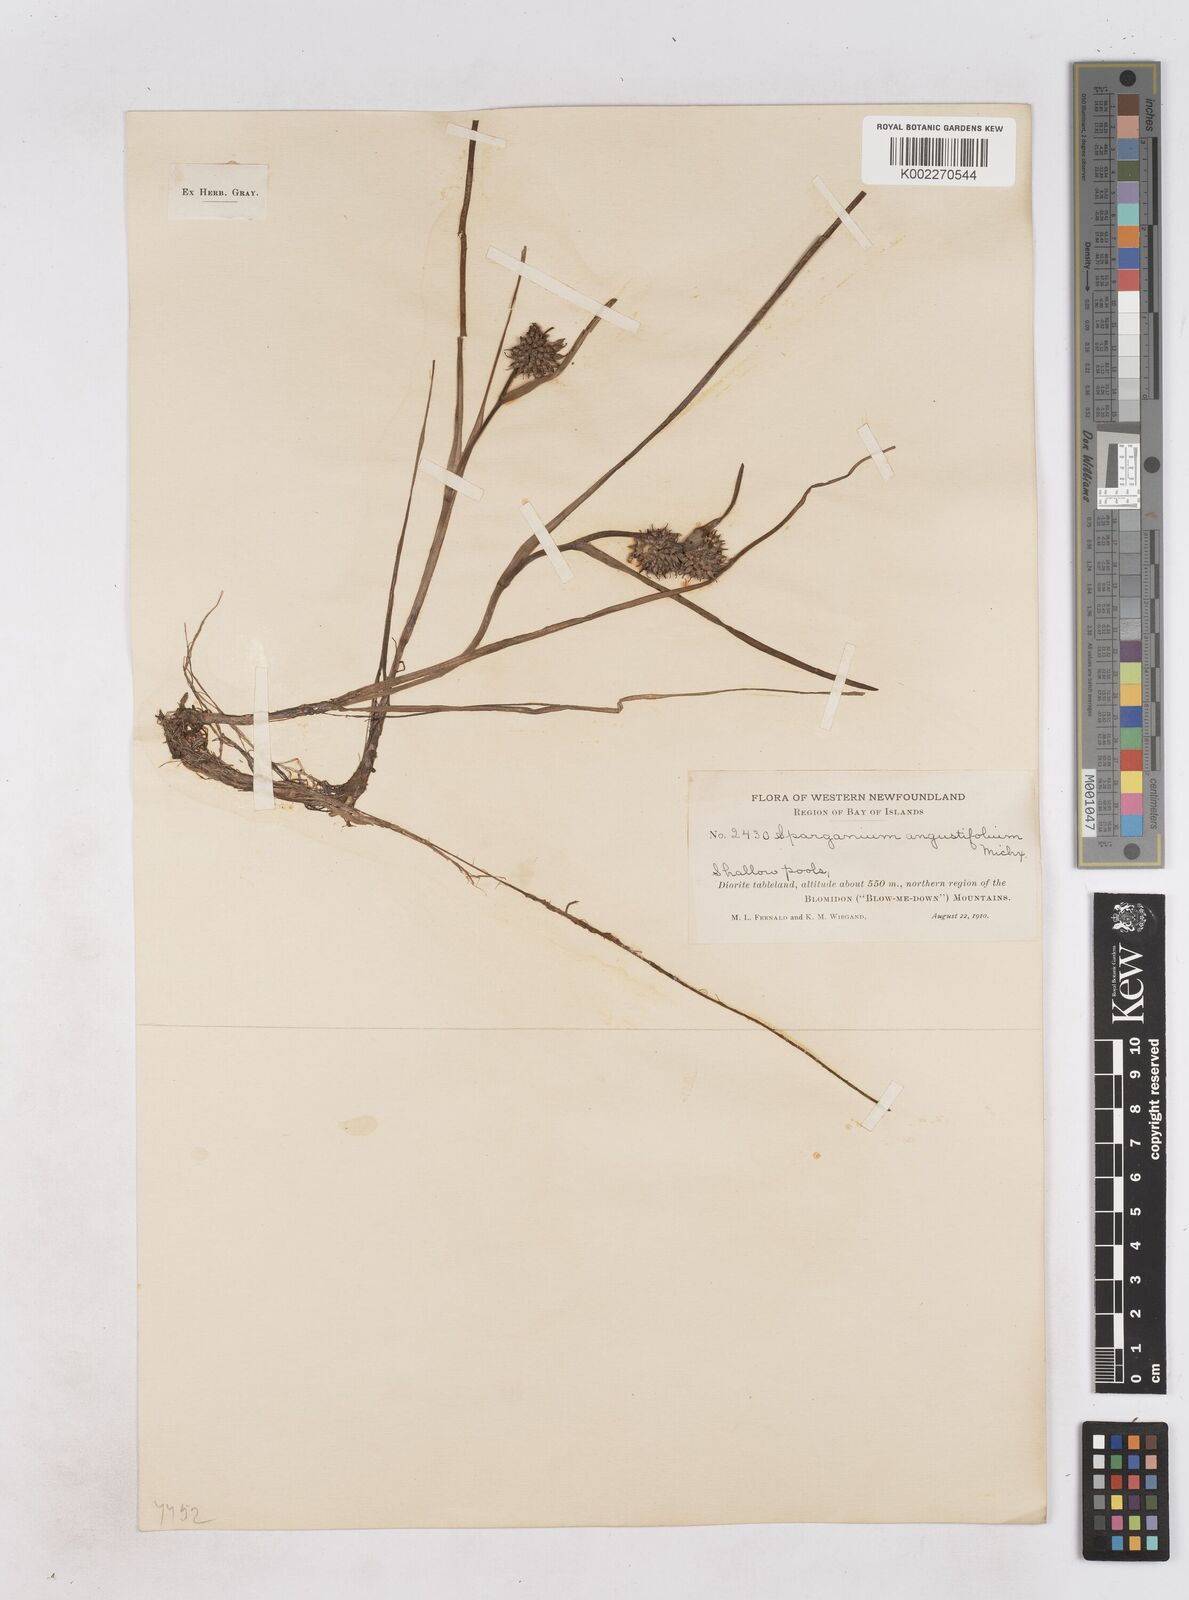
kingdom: Plantae
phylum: Tracheophyta
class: Liliopsida
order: Poales
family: Typhaceae
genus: Sparganium
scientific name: Sparganium angustifolium
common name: Floating bur-reed
